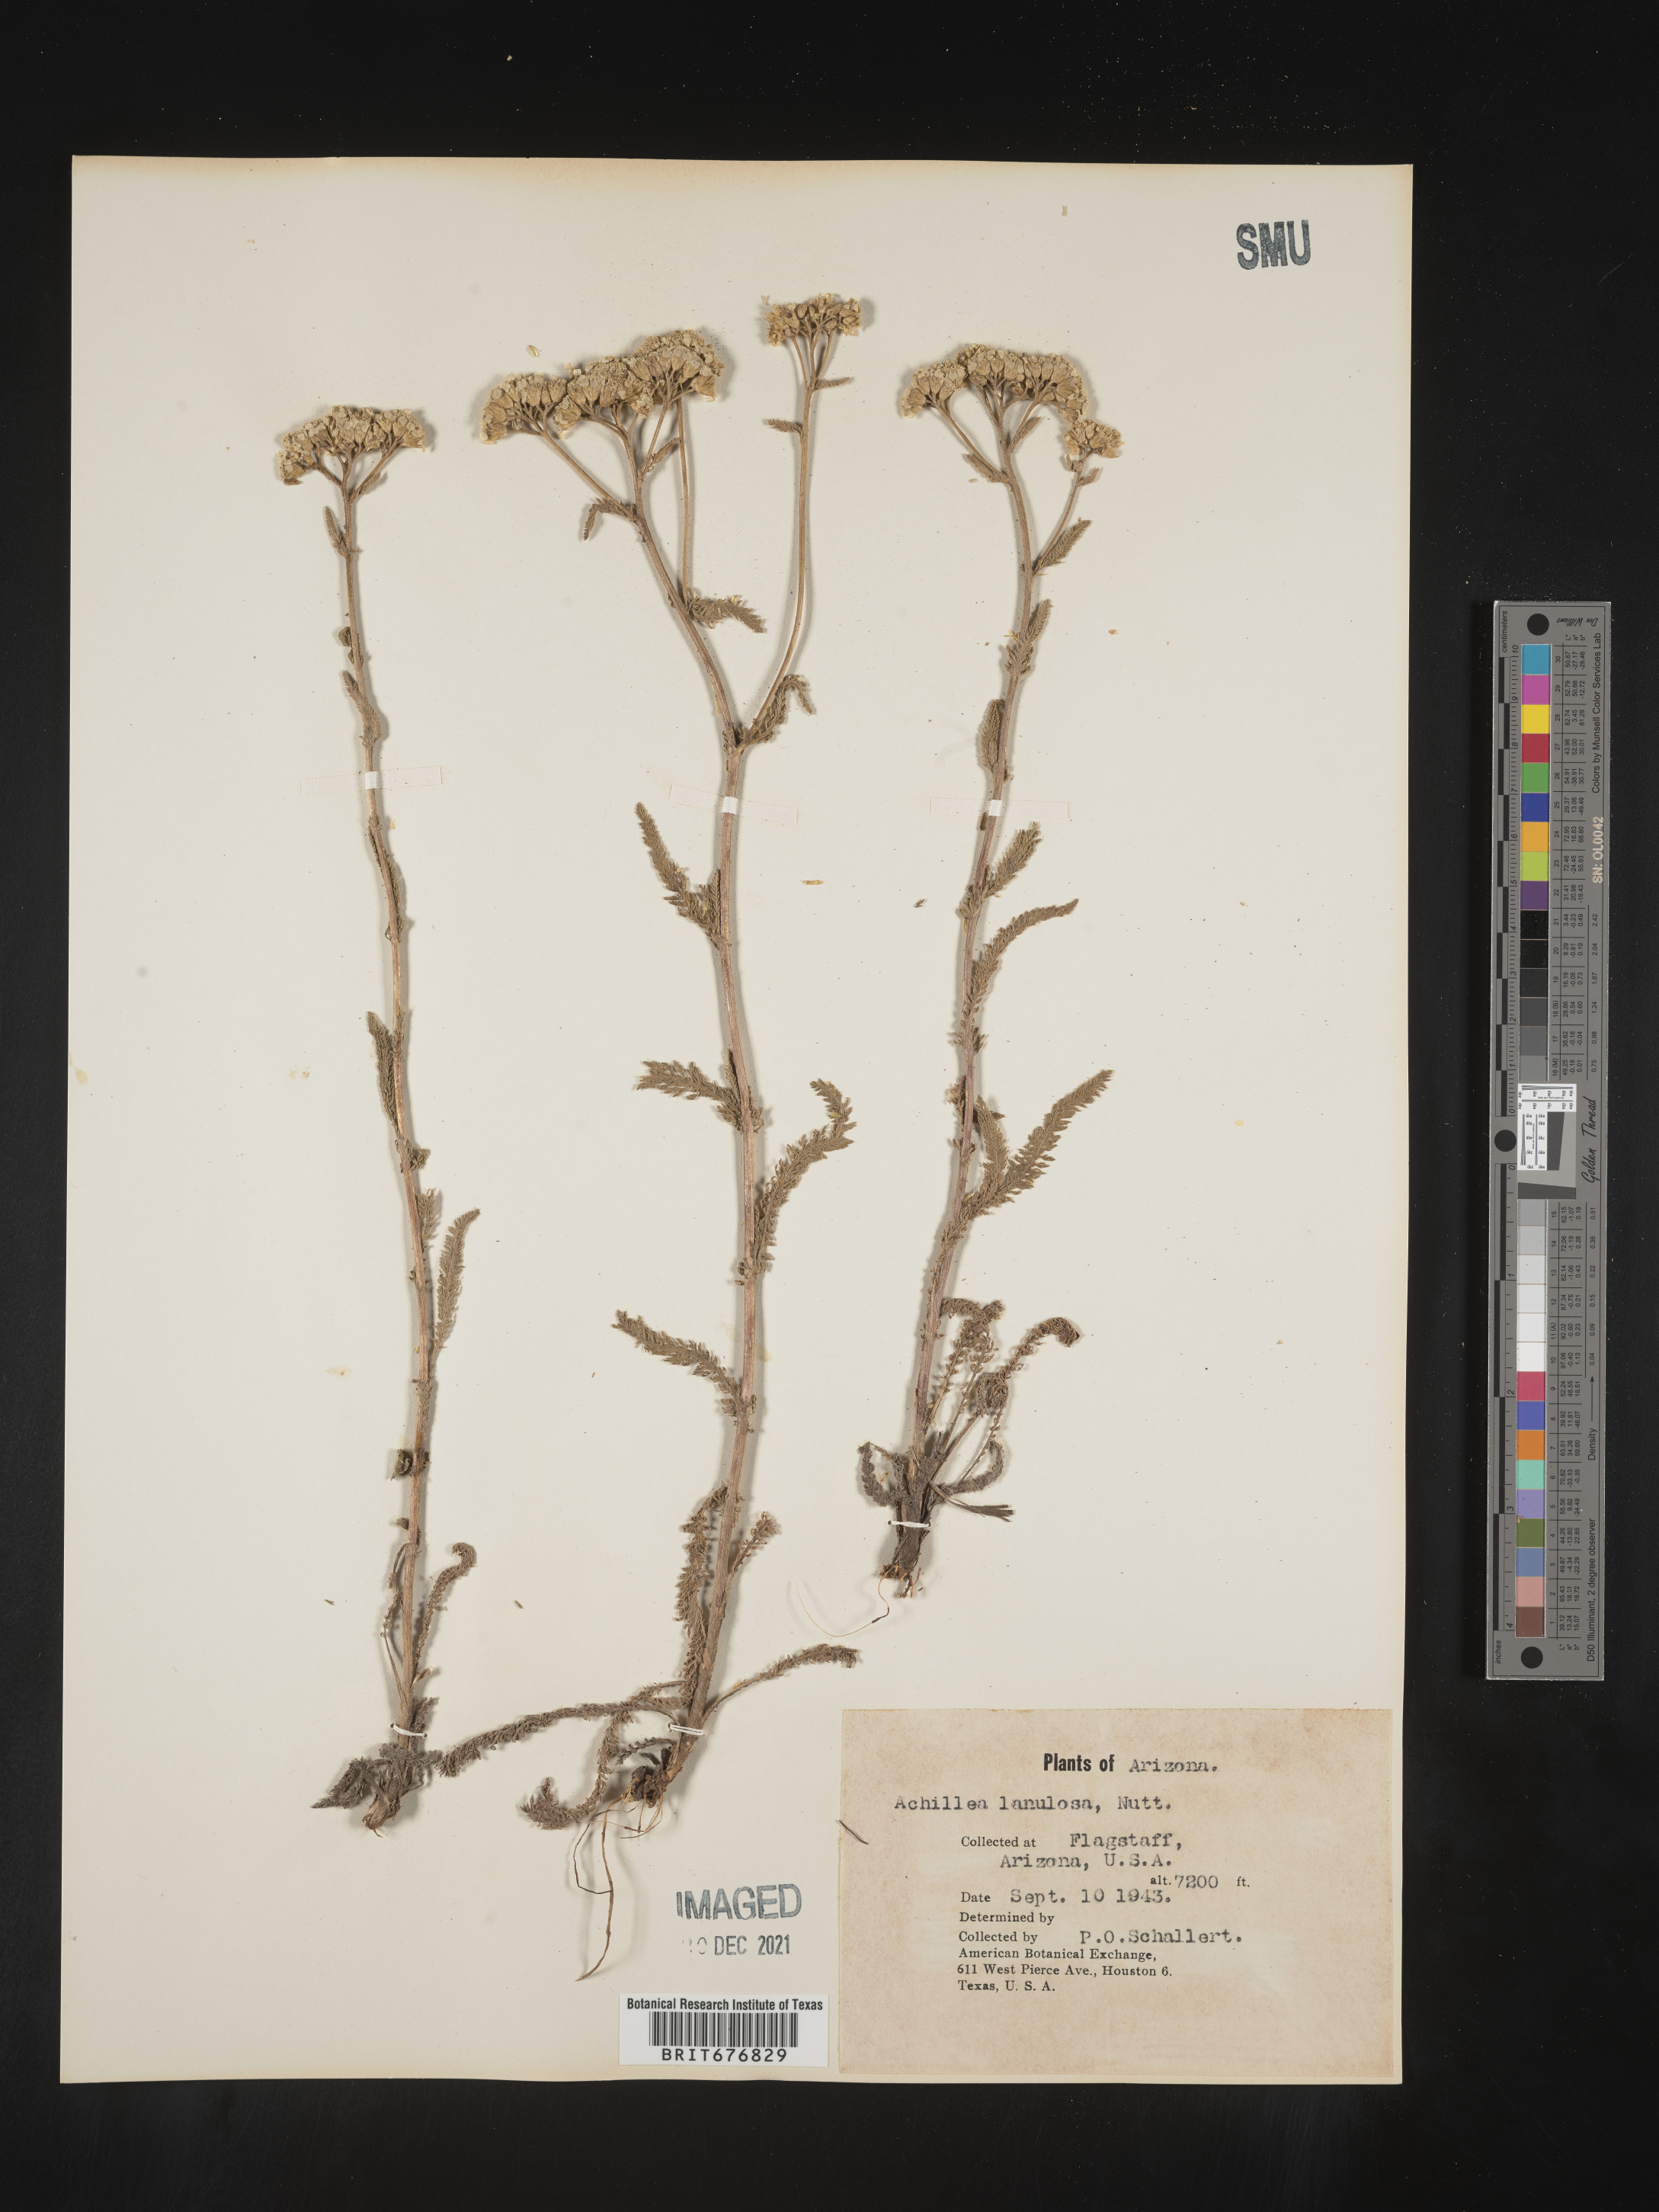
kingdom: Plantae
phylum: Tracheophyta
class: Magnoliopsida
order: Asterales
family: Asteraceae
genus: Achillea
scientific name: Achillea millefolium
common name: Yarrow
